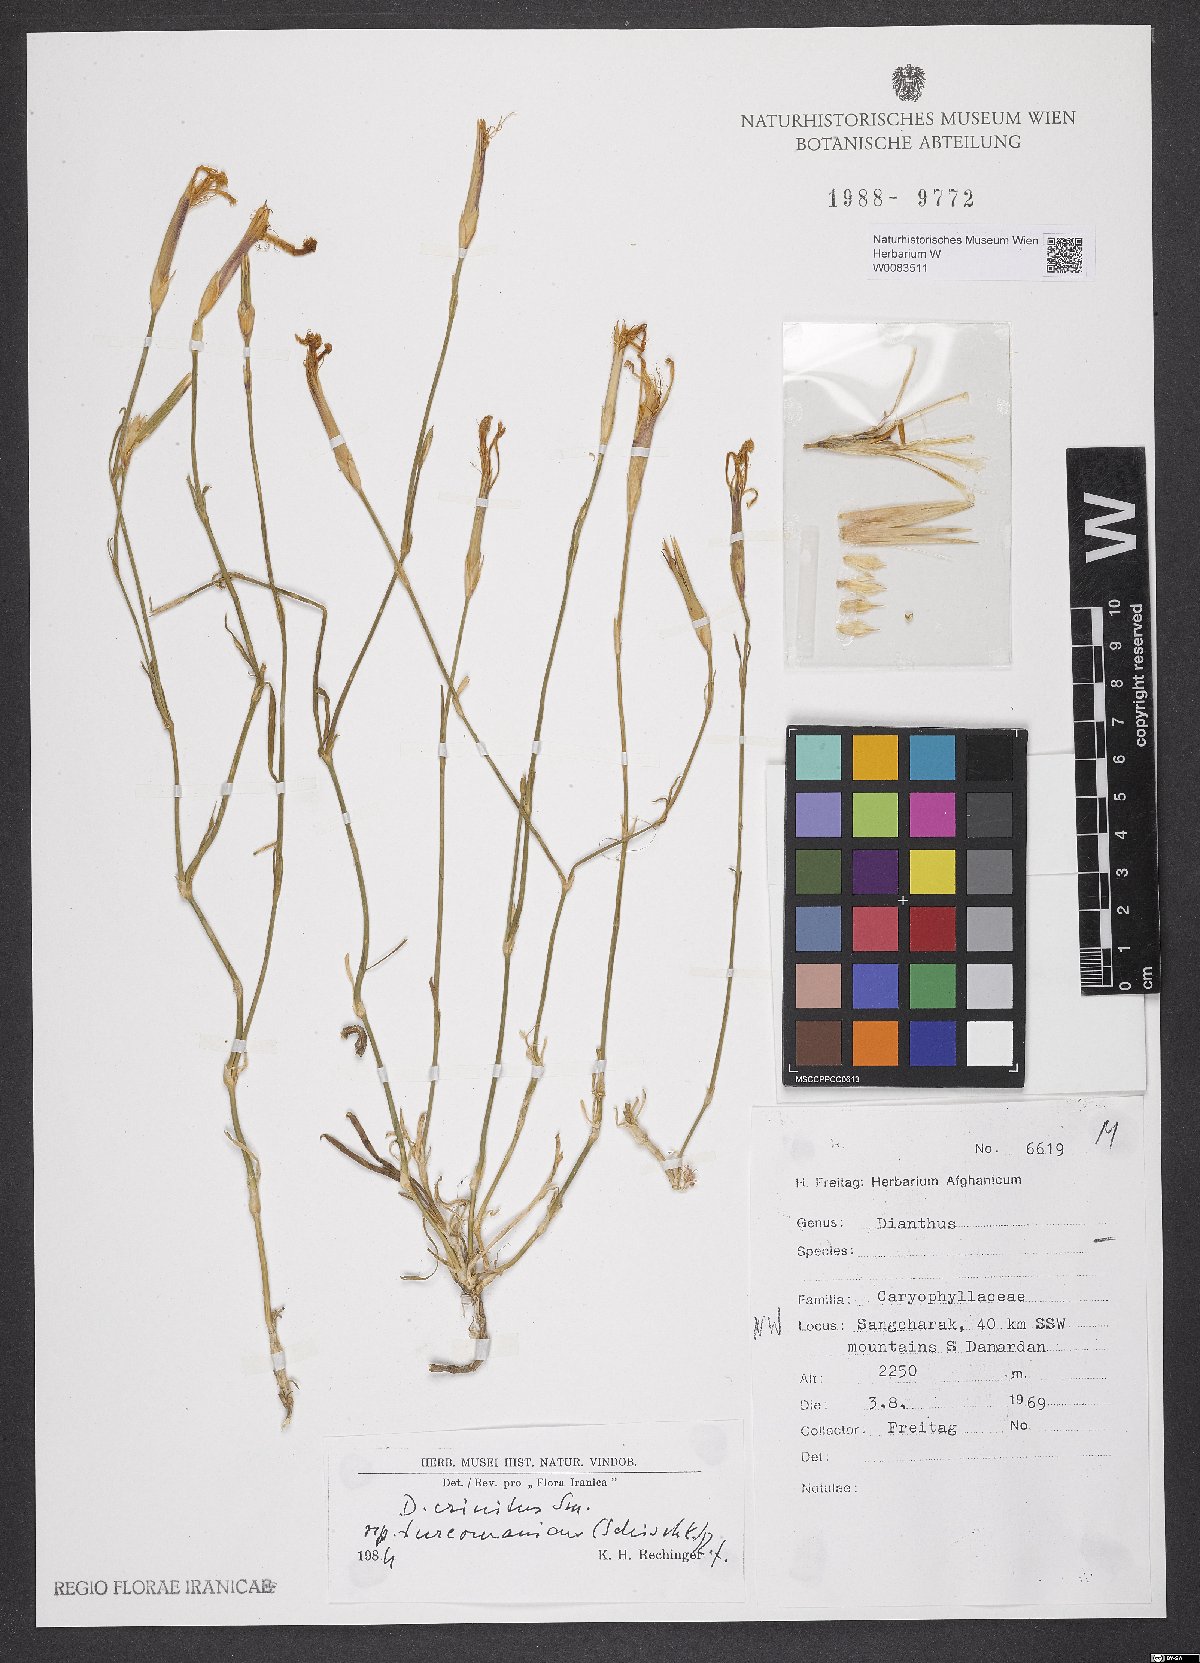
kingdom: Plantae
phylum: Tracheophyta
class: Magnoliopsida
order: Caryophyllales
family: Caryophyllaceae
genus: Dianthus
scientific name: Dianthus turkestanicus
